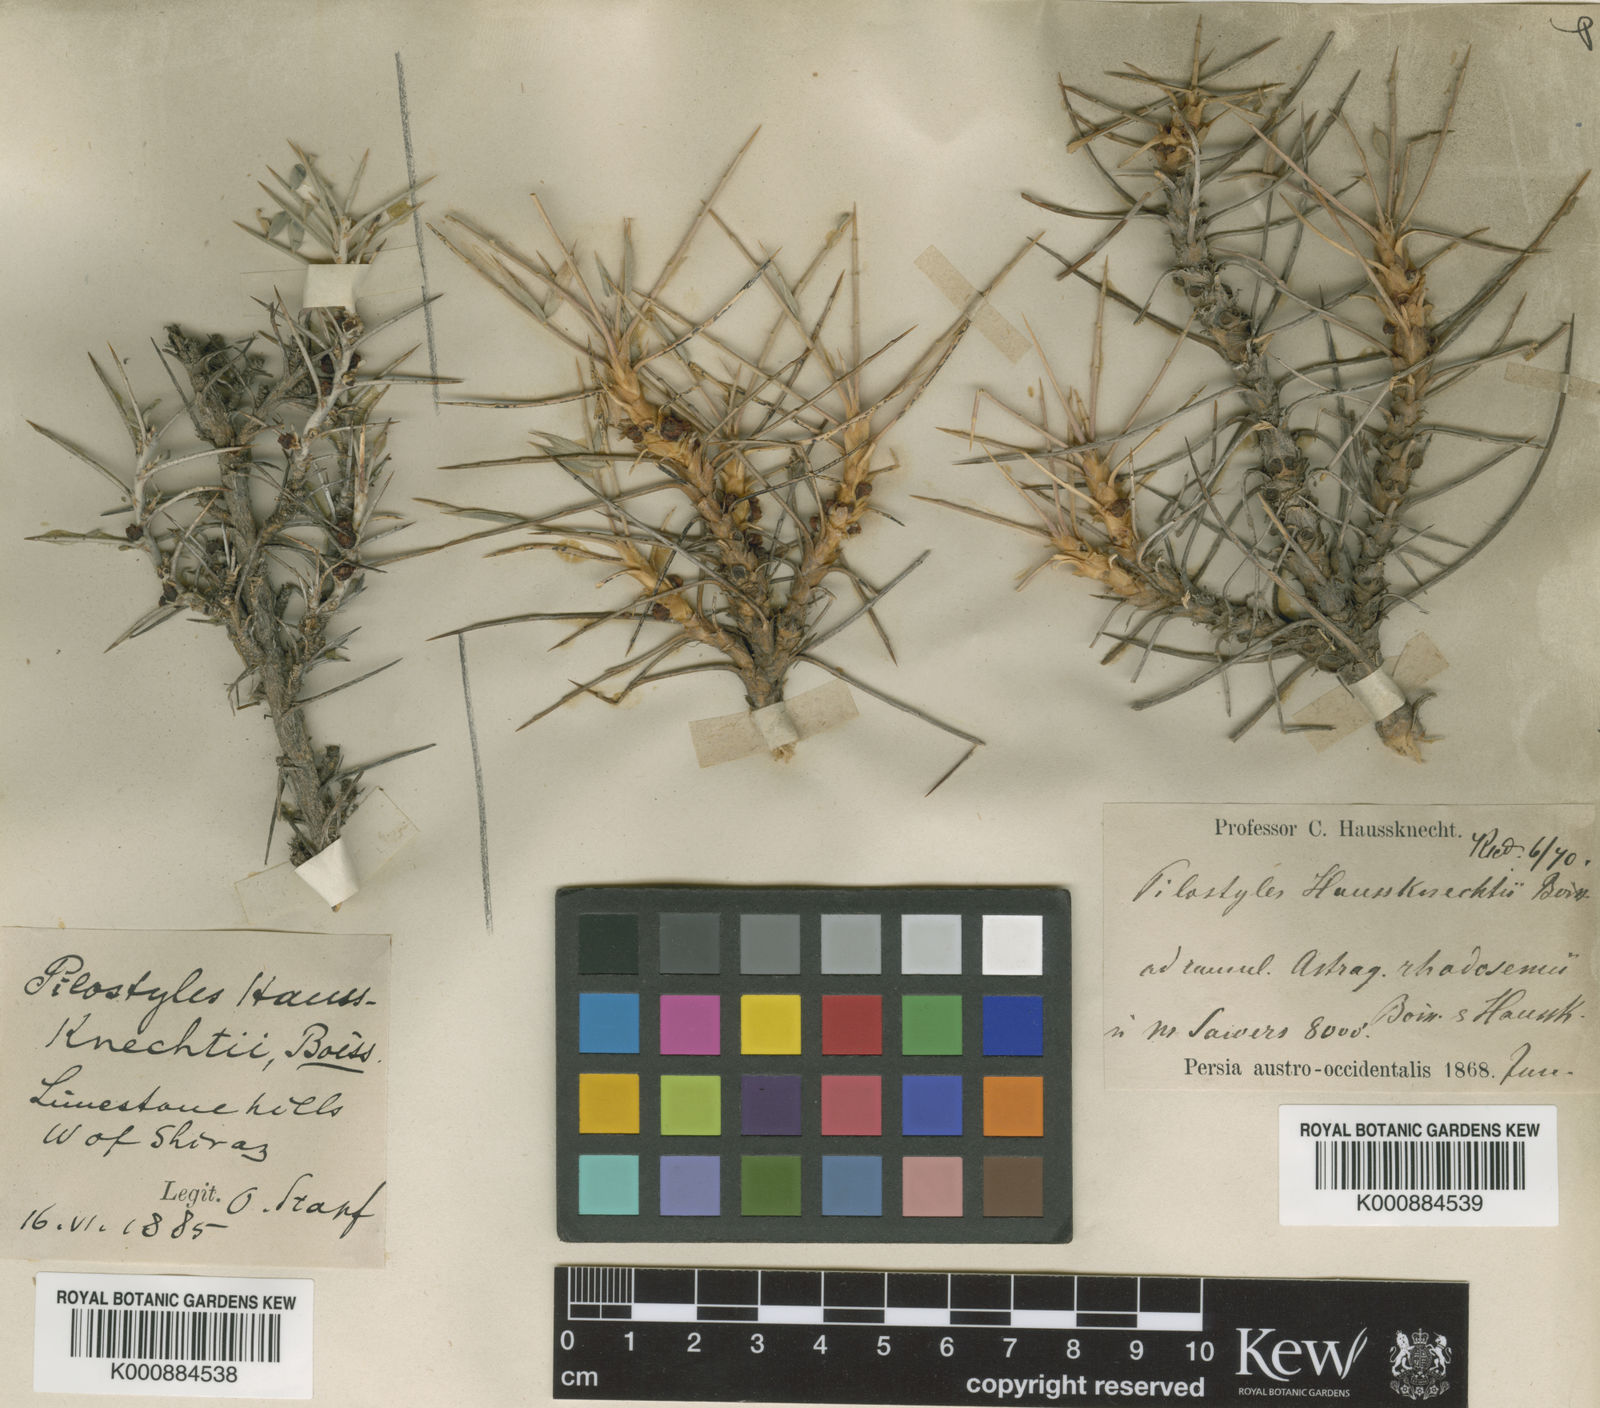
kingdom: Plantae
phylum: Tracheophyta
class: Magnoliopsida
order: Cucurbitales
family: Apodanthaceae
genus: Pilostyles
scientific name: Pilostyles haussknechtii
